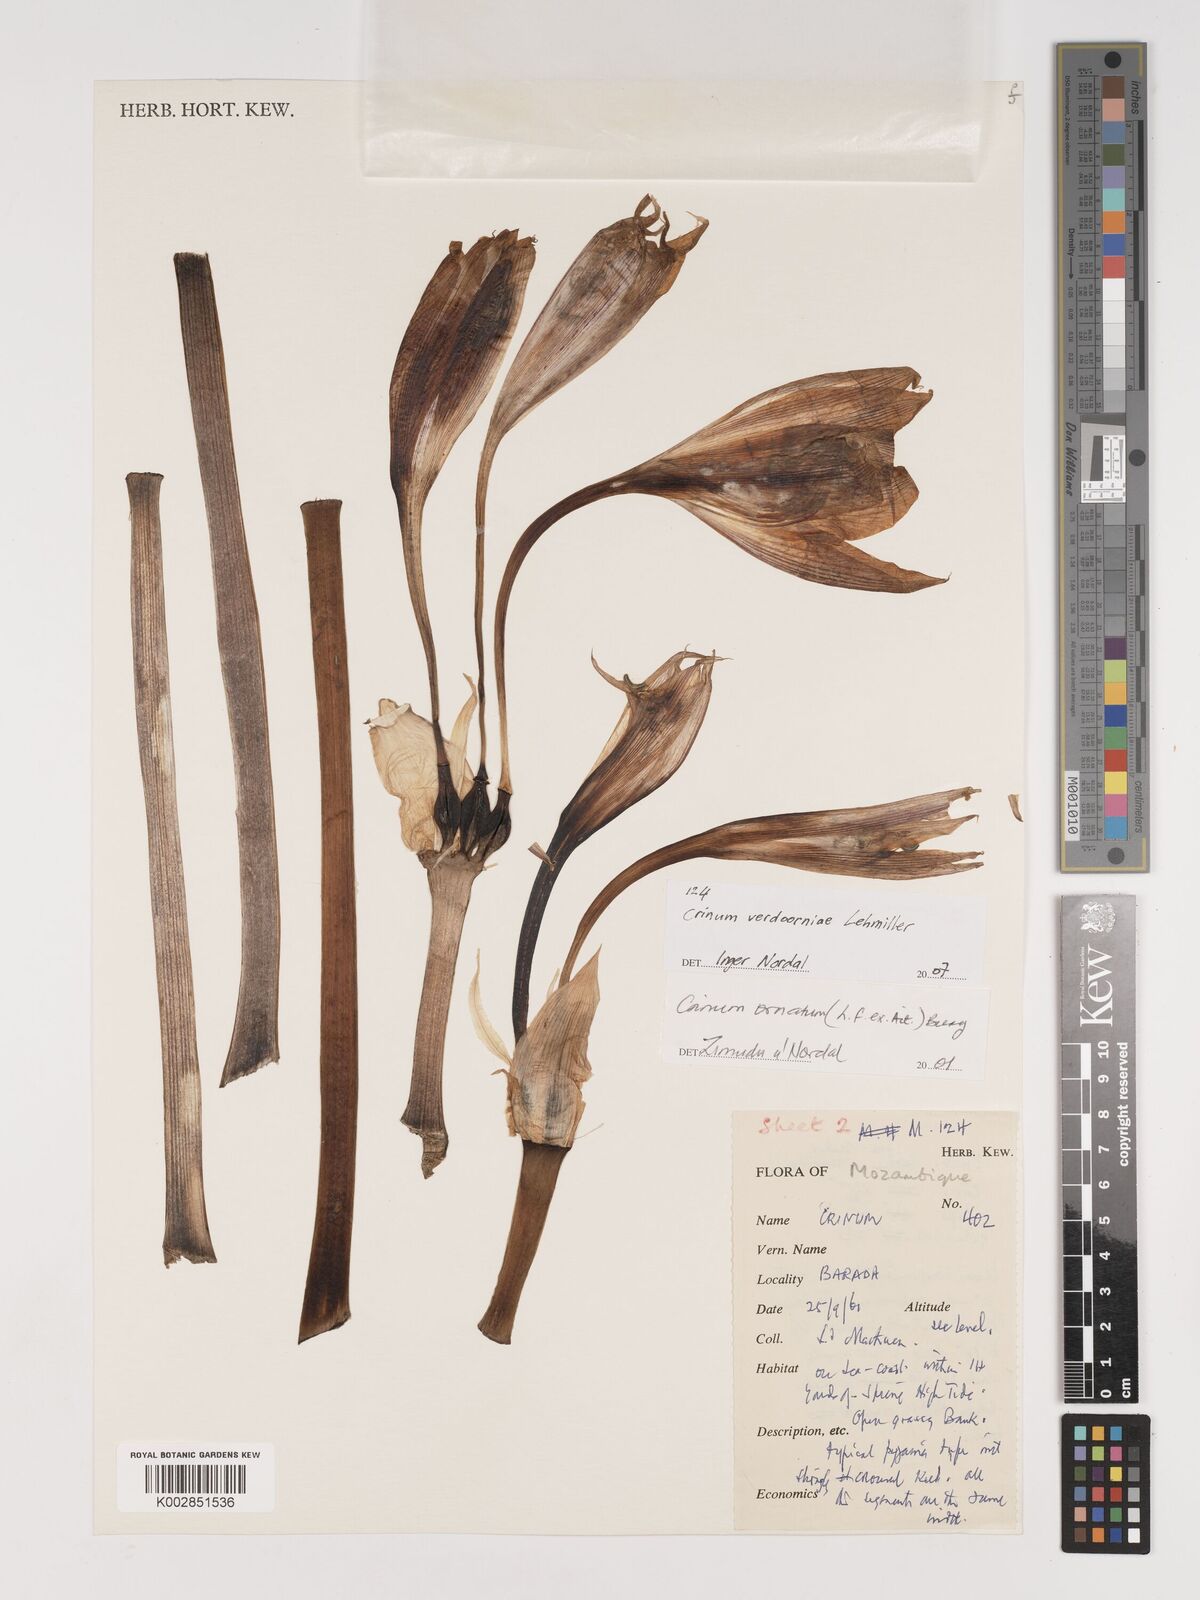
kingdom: Plantae
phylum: Tracheophyta
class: Liliopsida
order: Asparagales
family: Amaryllidaceae
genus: Crinum
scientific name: Crinum verdoorniae
